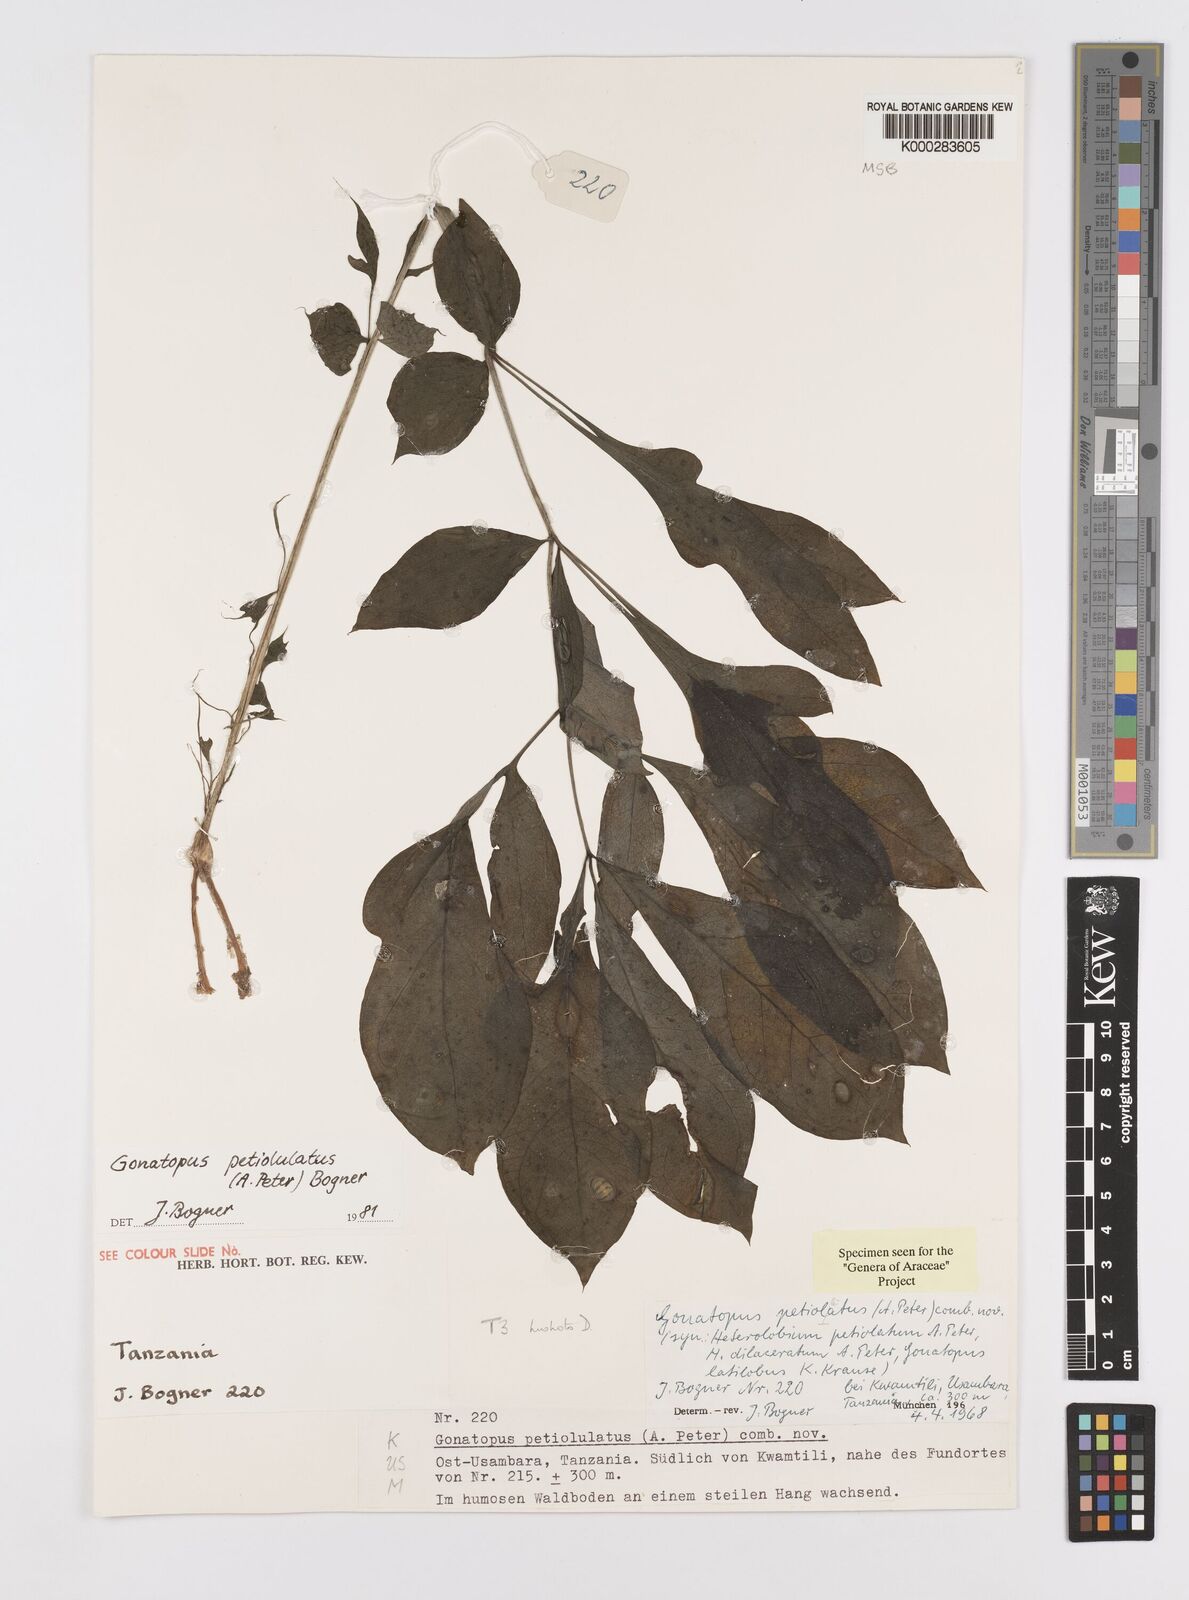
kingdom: Plantae
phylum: Tracheophyta
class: Liliopsida
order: Alismatales
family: Araceae
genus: Gonatopus
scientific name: Gonatopus petiolulatus
